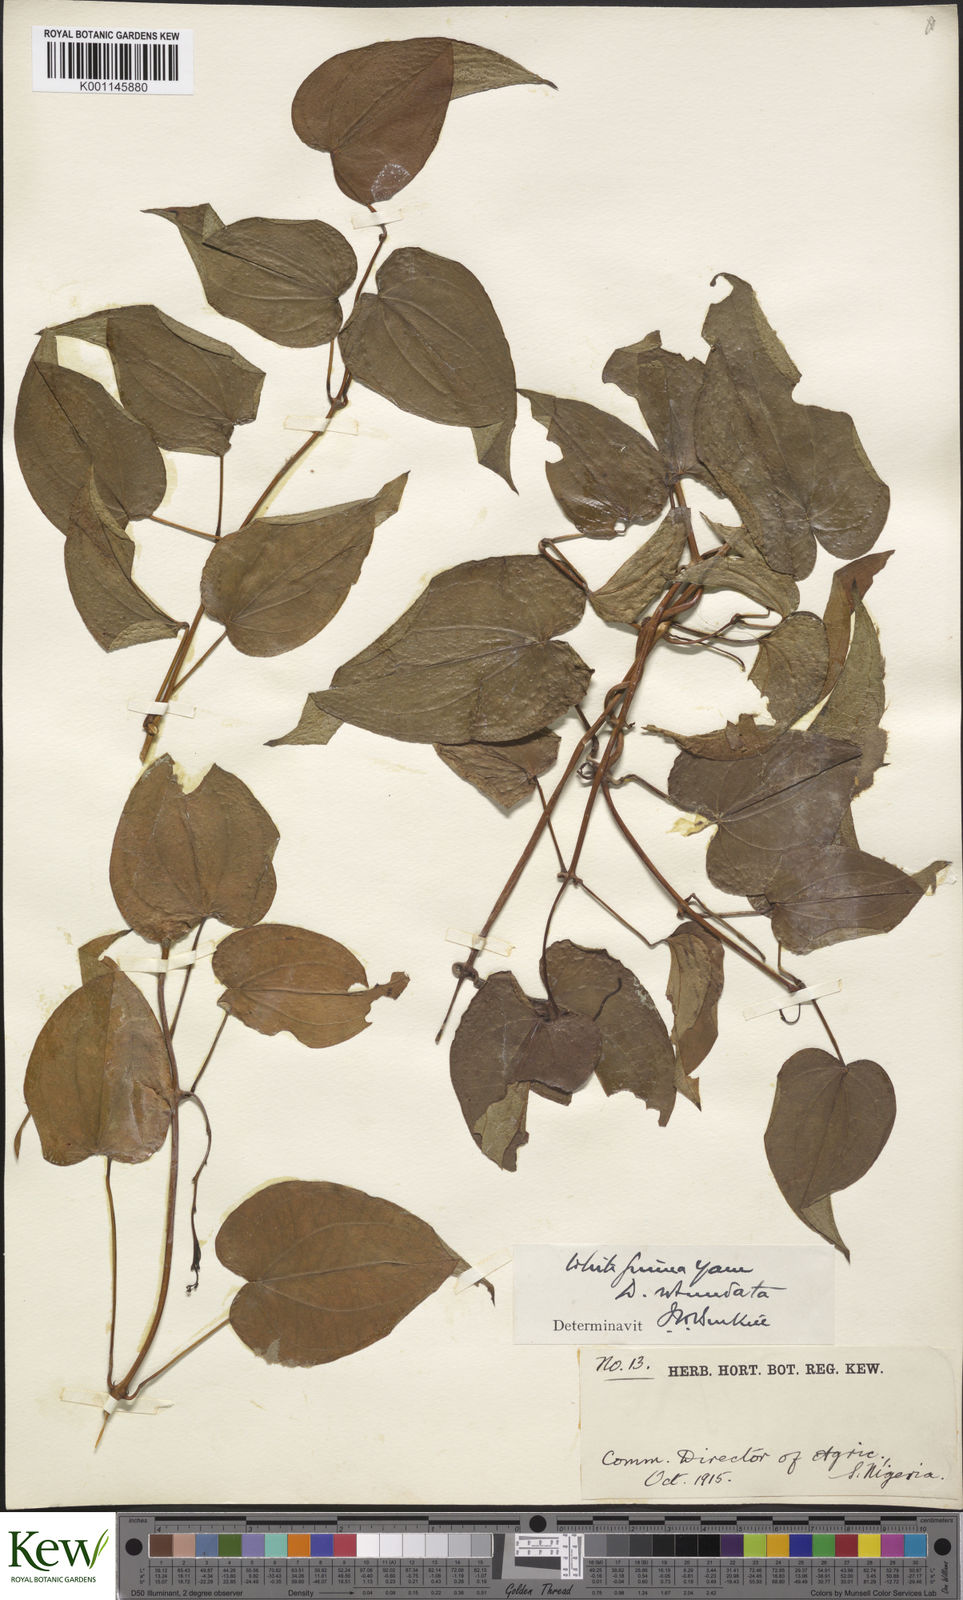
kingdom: Plantae
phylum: Tracheophyta
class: Liliopsida
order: Dioscoreales
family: Dioscoreaceae
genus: Dioscorea
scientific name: Dioscorea cayenensis
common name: Attoto yam
